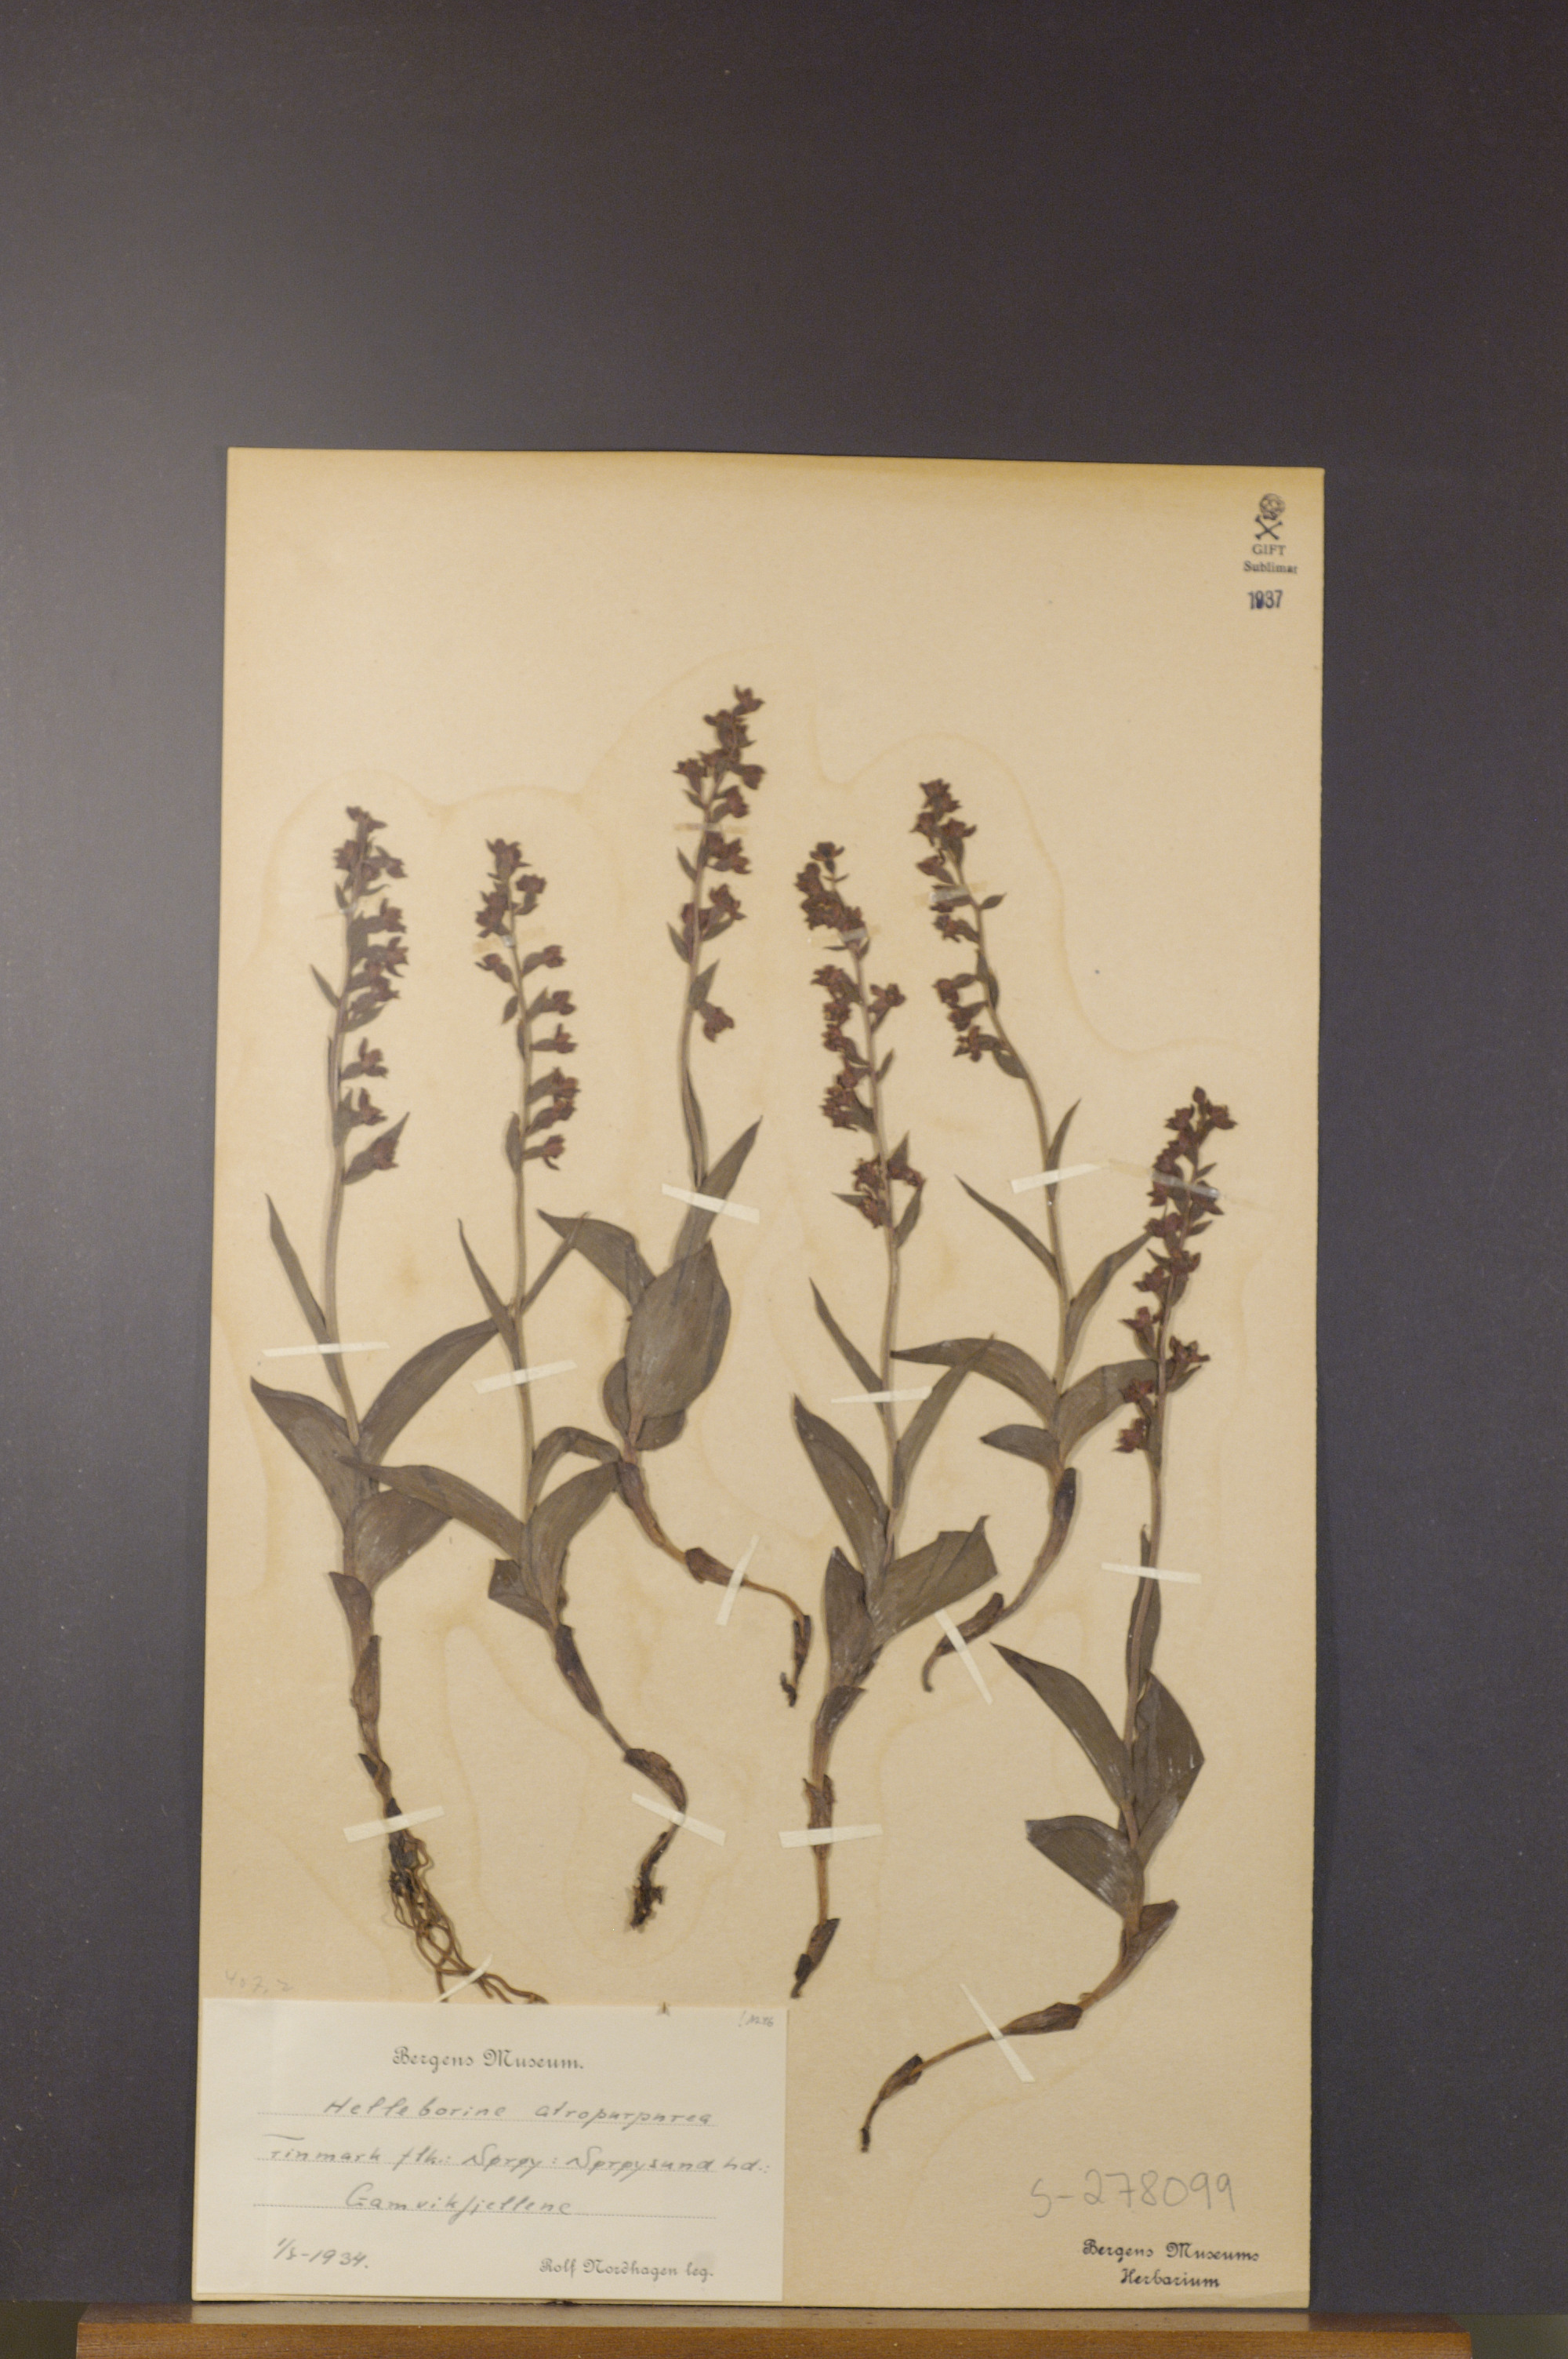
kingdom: Plantae
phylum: Tracheophyta
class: Liliopsida
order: Asparagales
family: Orchidaceae
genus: Epipactis
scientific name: Epipactis atrorubens
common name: Dark-red helleborine
